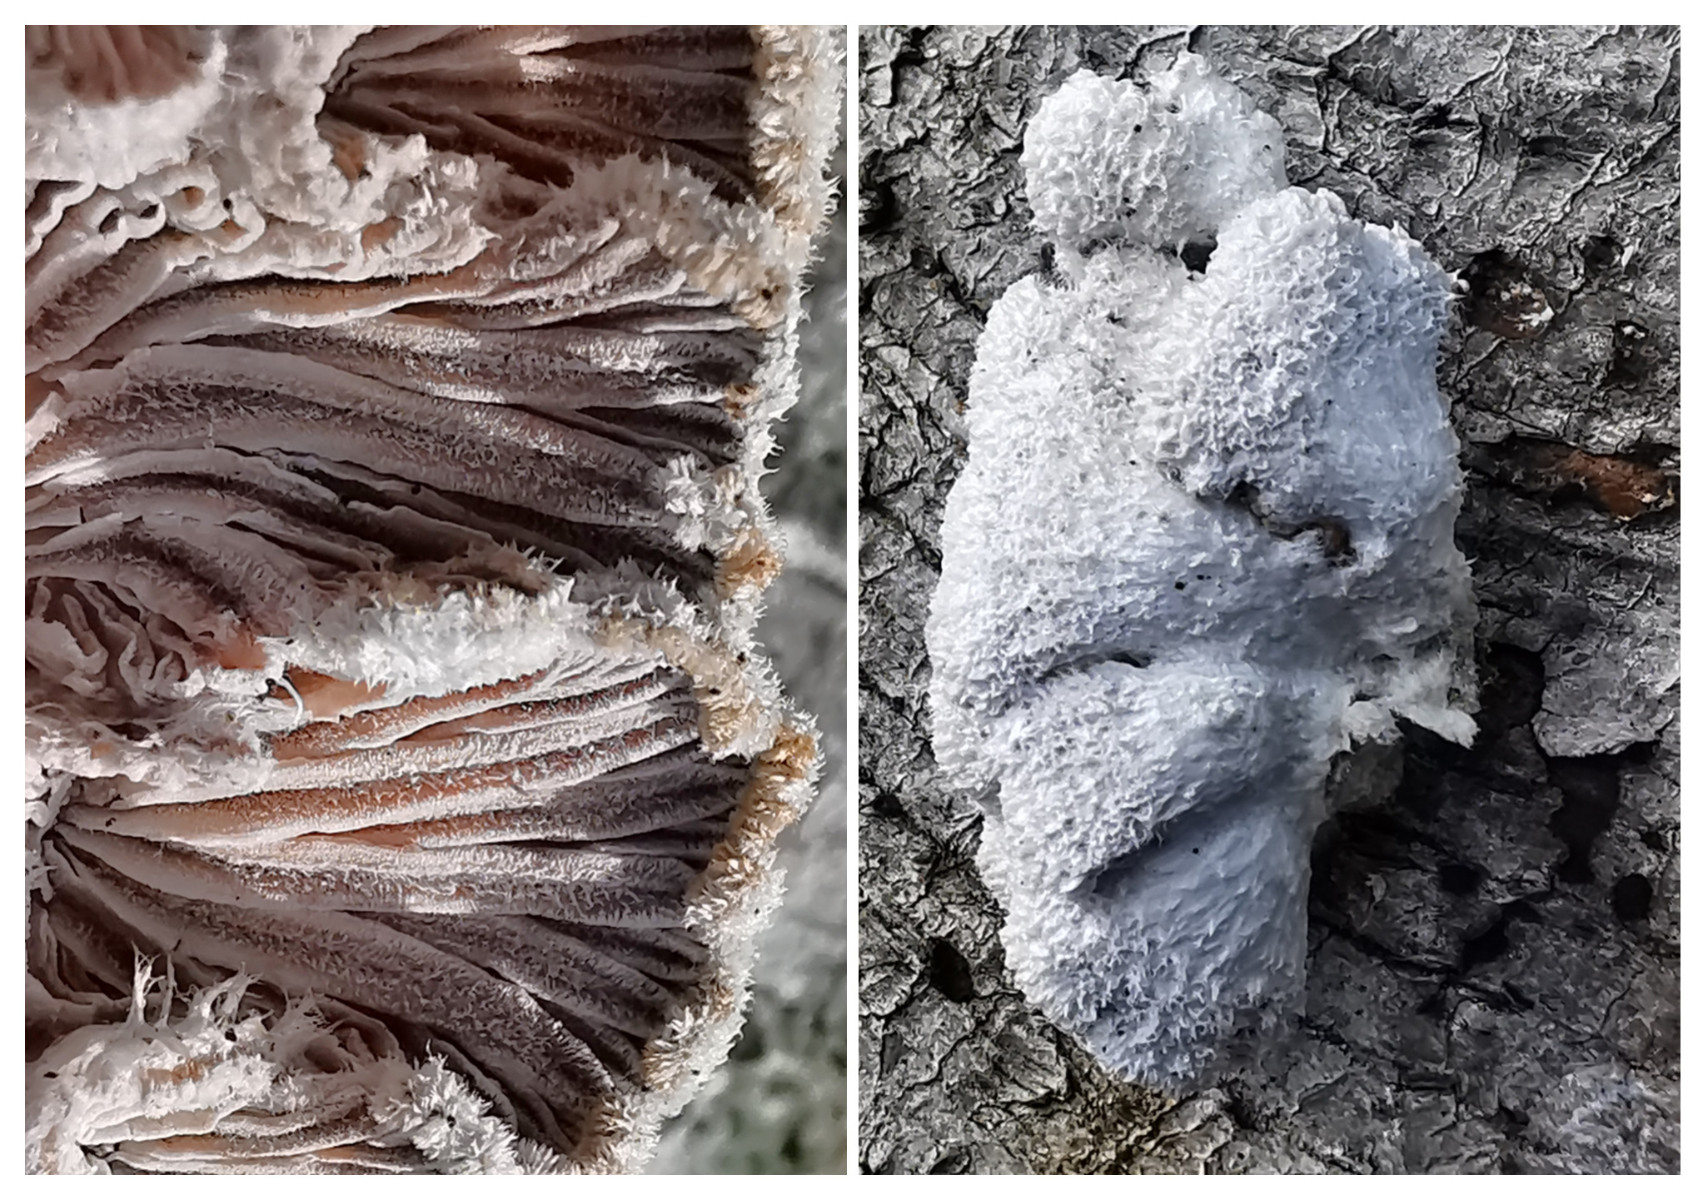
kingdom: Fungi
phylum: Basidiomycota
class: Agaricomycetes
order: Agaricales
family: Schizophyllaceae
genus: Schizophyllum
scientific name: Schizophyllum commune
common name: kløvblad
